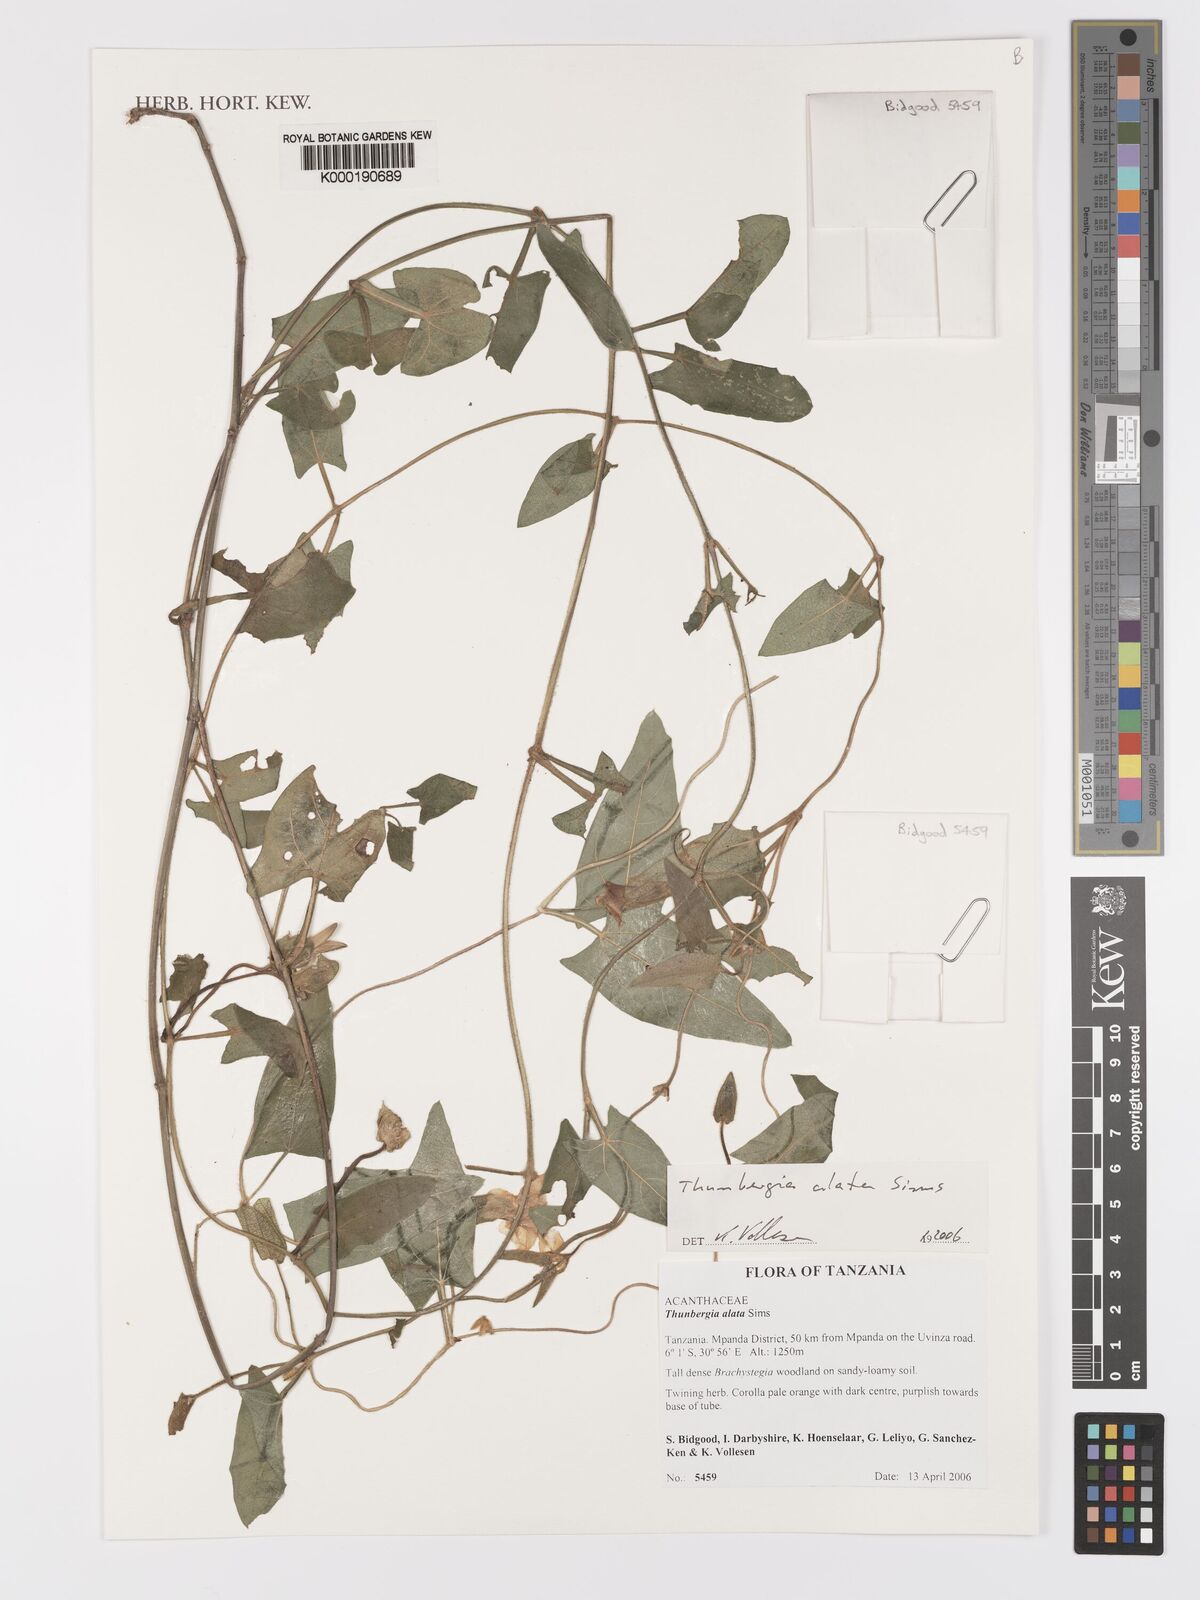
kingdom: Plantae
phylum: Tracheophyta
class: Magnoliopsida
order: Lamiales
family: Acanthaceae
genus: Thunbergia
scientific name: Thunbergia alata
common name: Blackeyed susan vine
